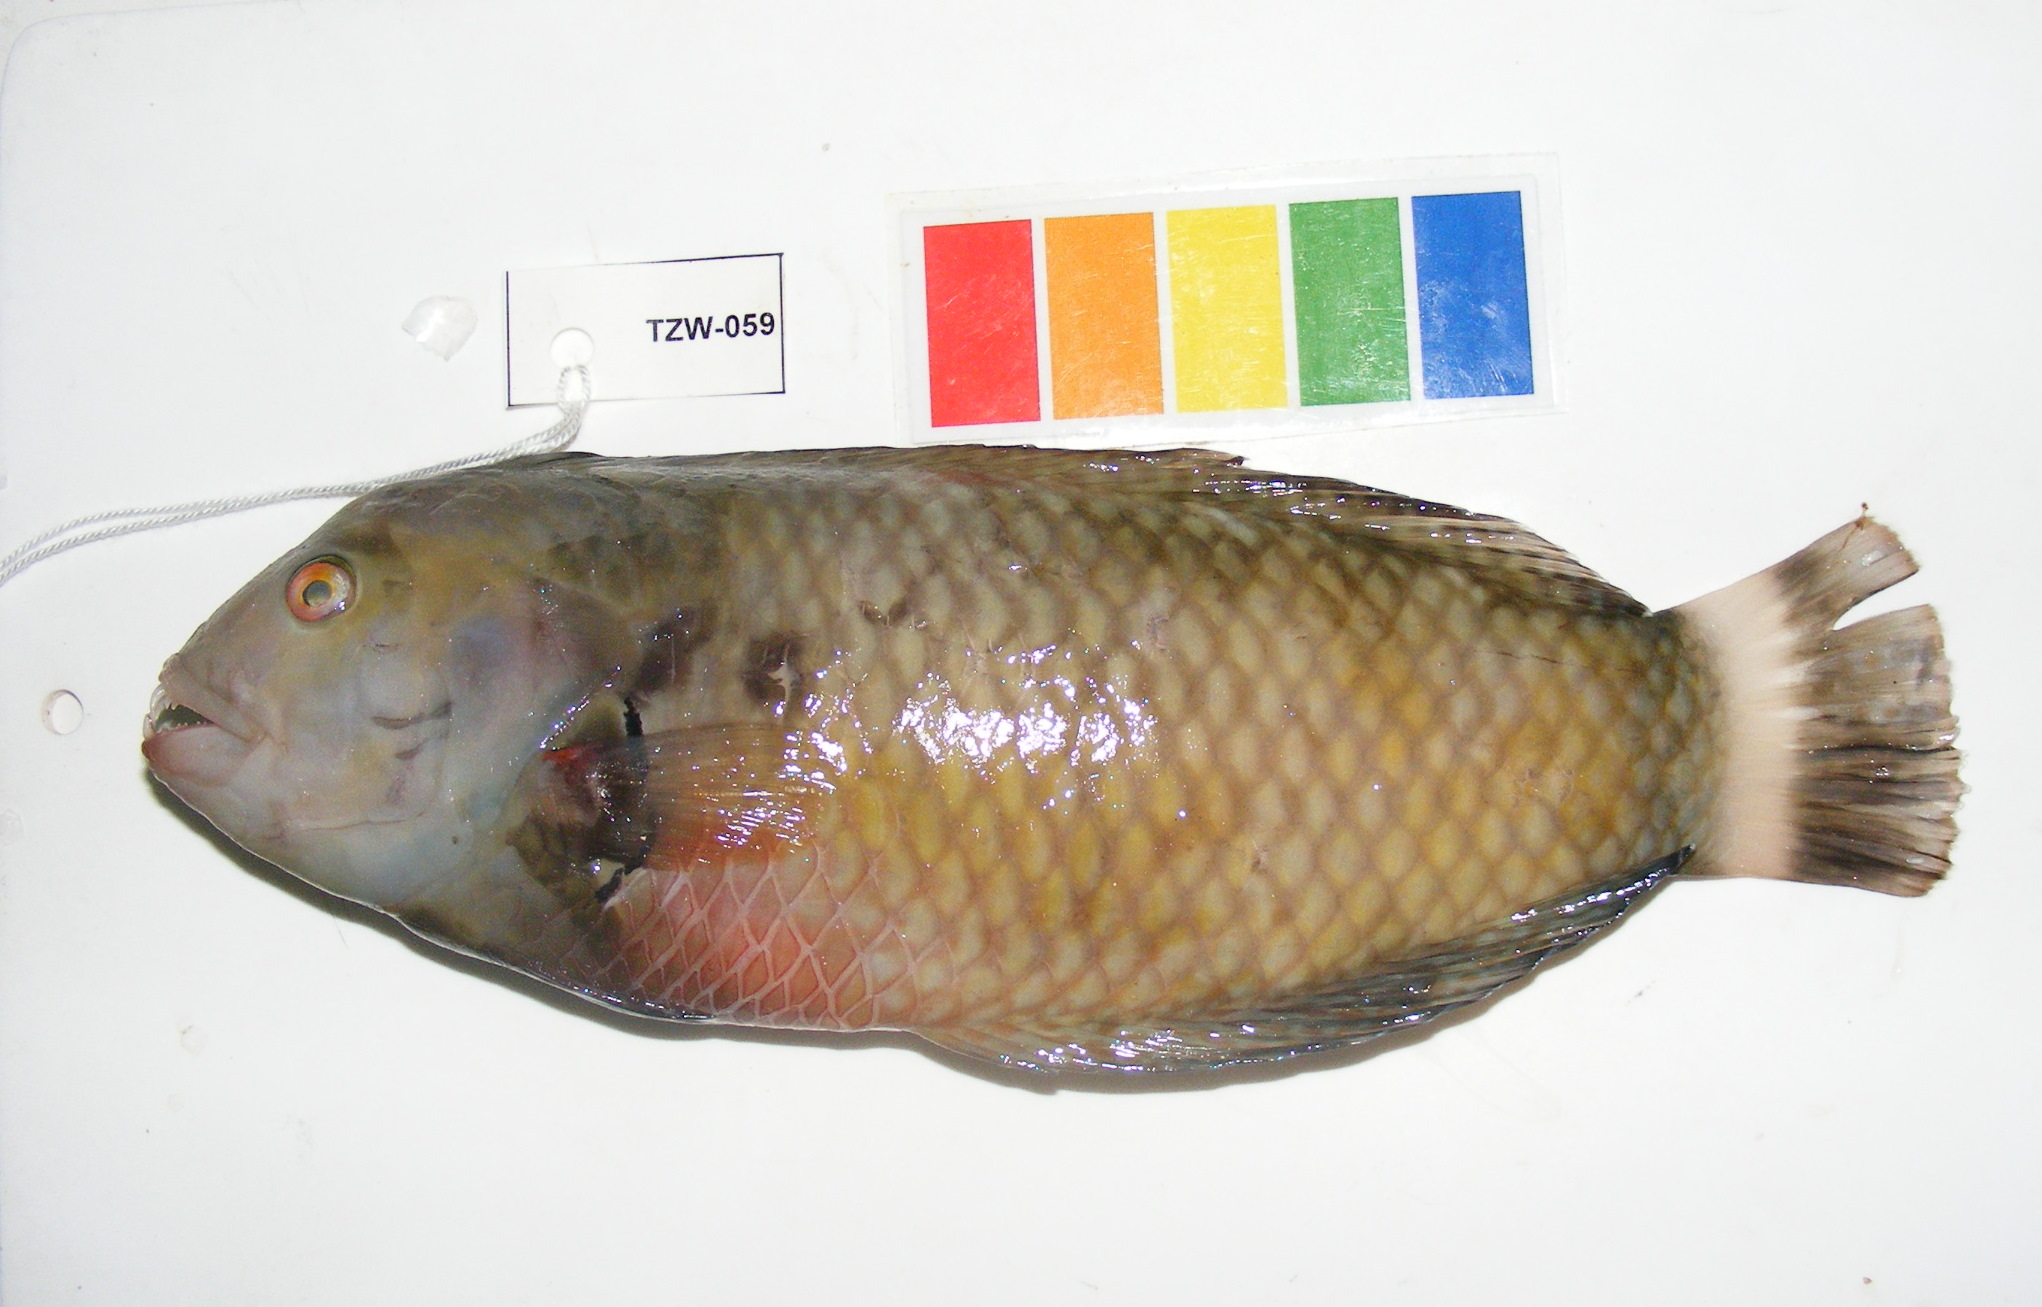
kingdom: Animalia
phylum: Chordata
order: Perciformes
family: Labridae
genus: Novaculichthys
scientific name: Novaculichthys taeniourus
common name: Rockmover wrasse
